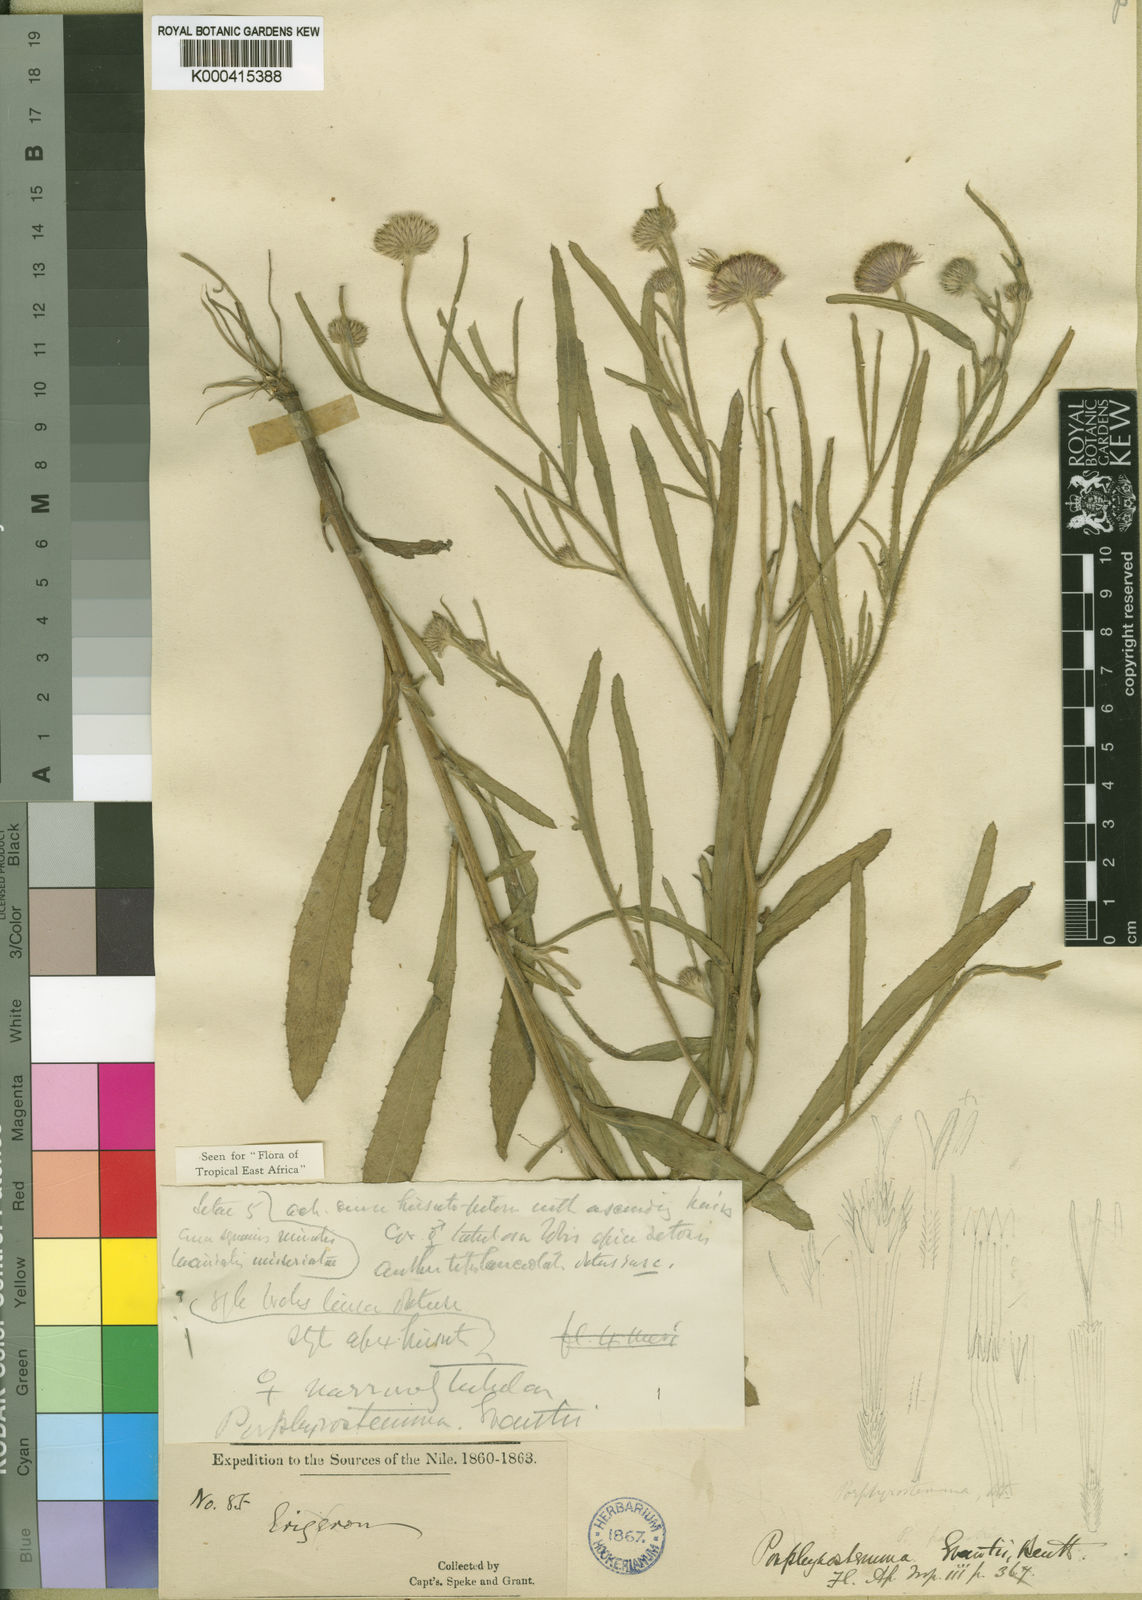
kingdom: Plantae
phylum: Tracheophyta
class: Magnoliopsida
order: Asterales
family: Asteraceae
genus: Porphyrostemma
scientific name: Porphyrostemma grantii
